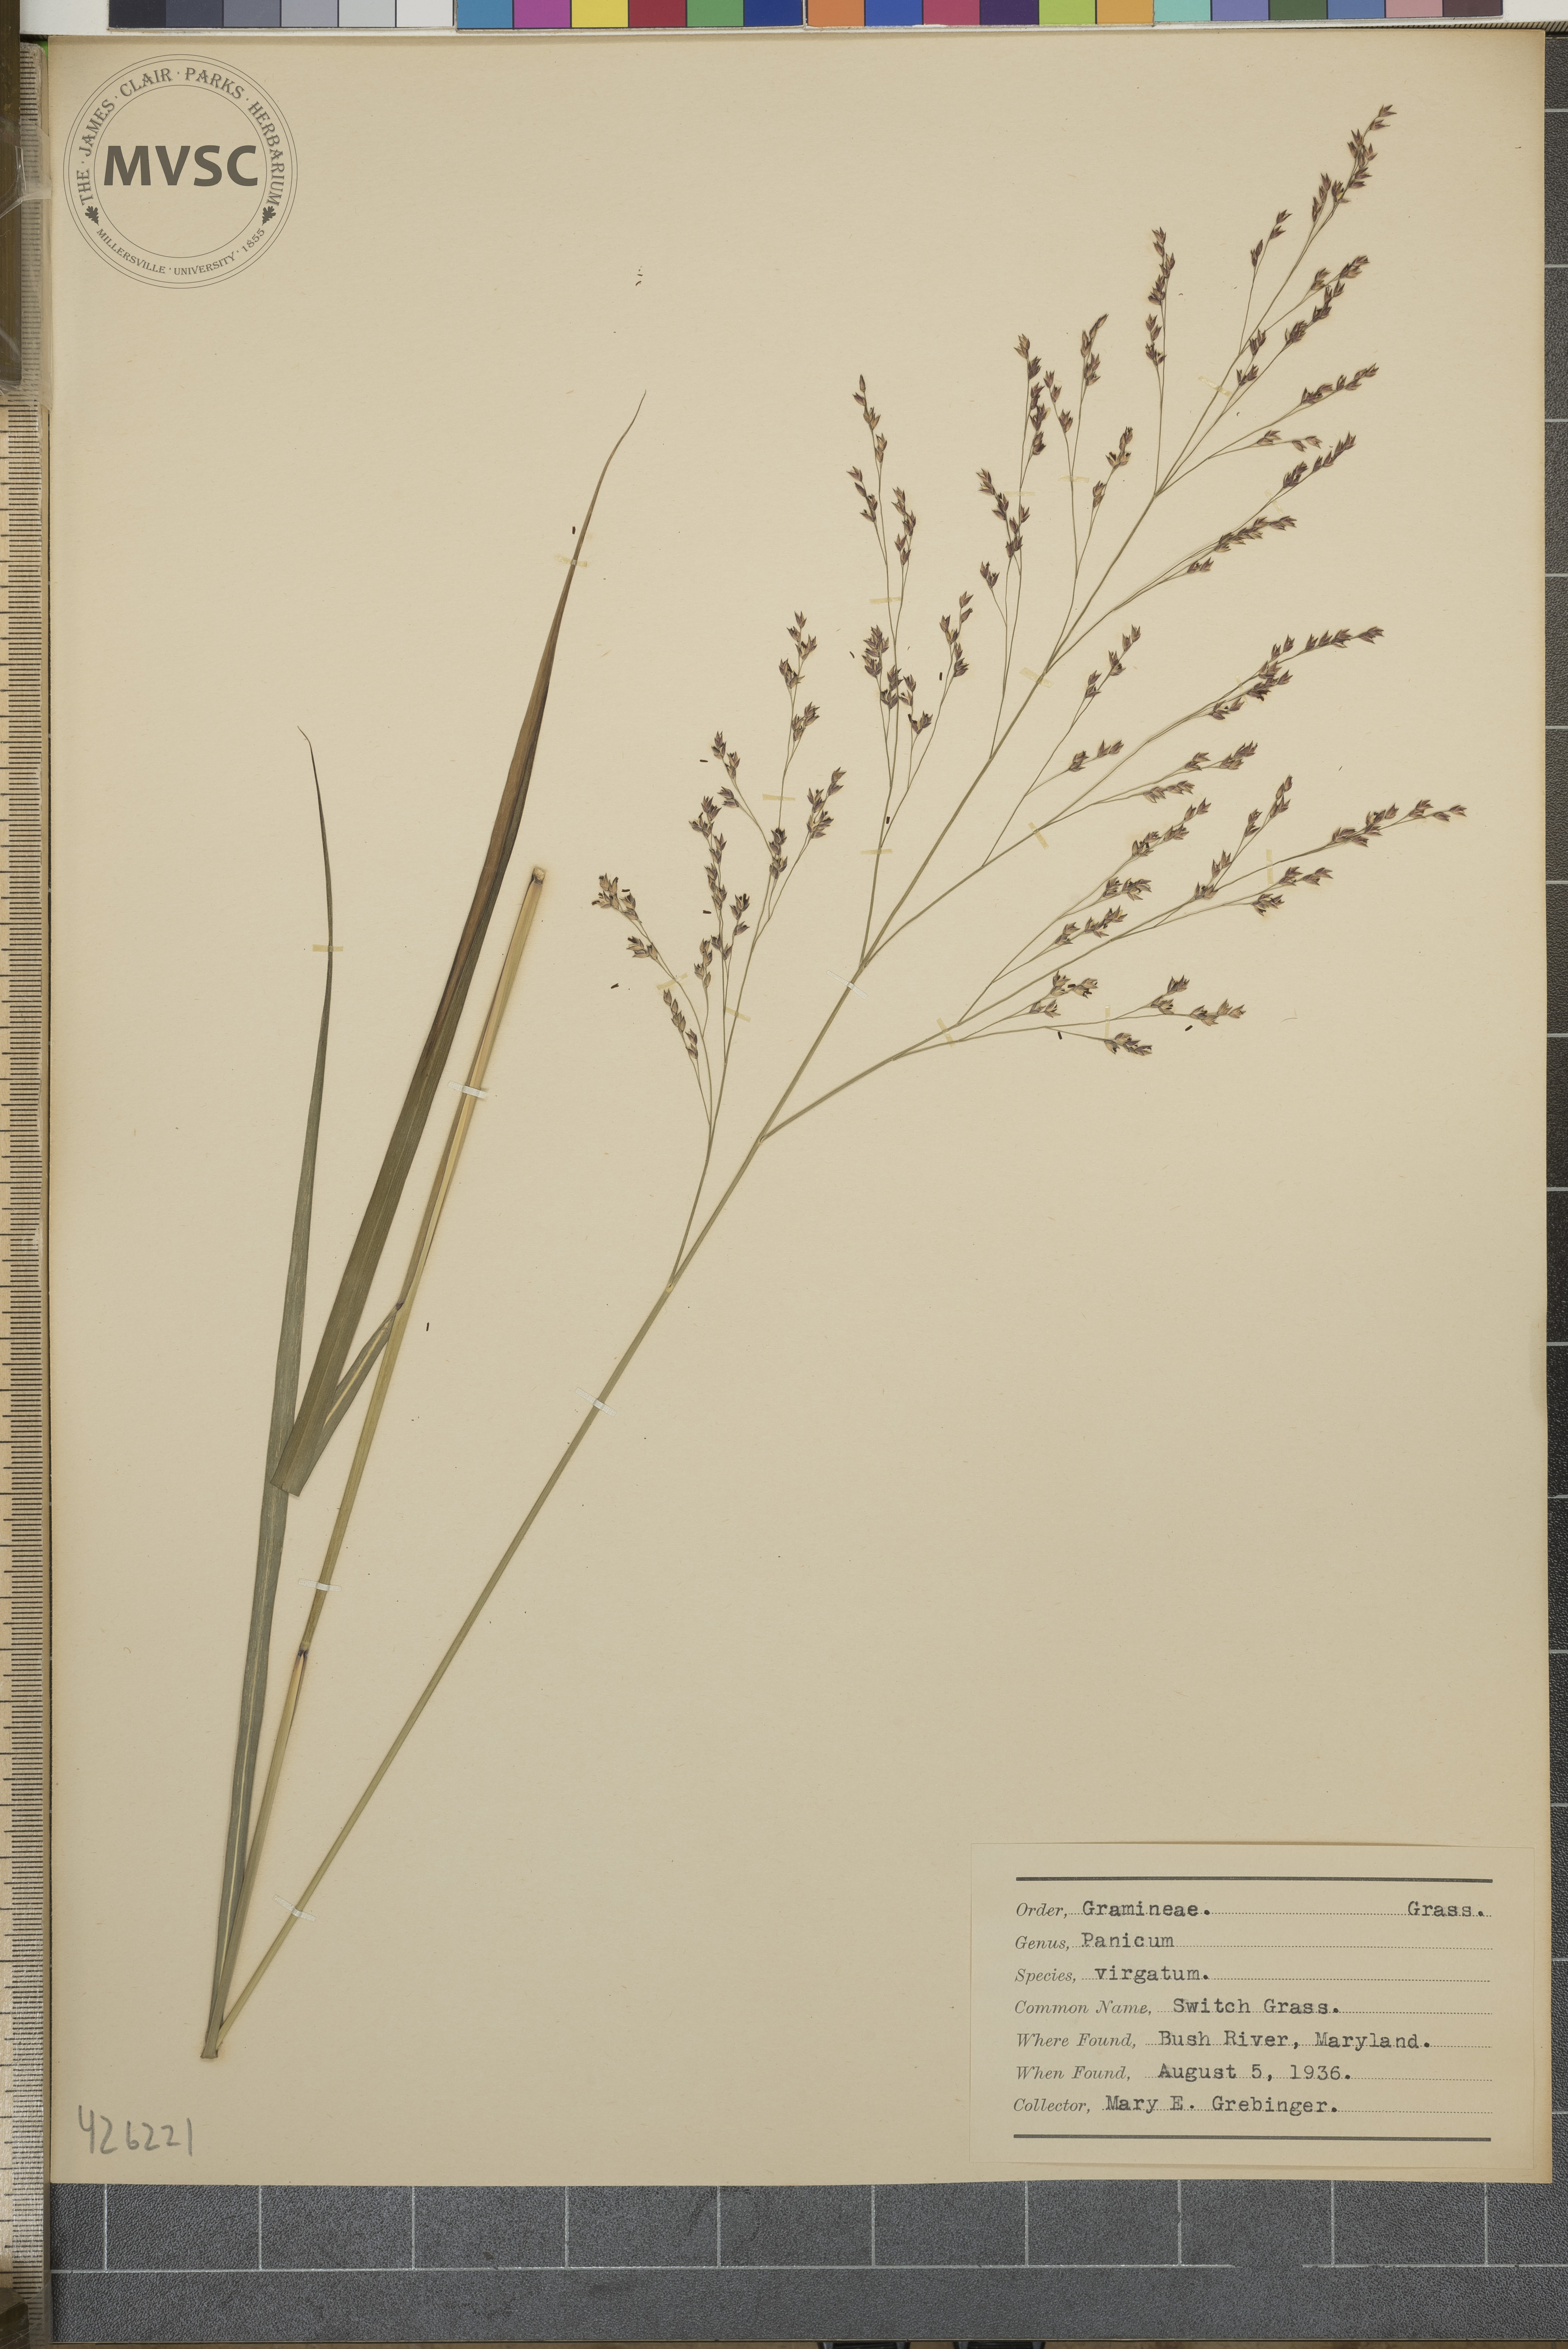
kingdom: Plantae
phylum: Tracheophyta
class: Liliopsida
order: Poales
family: Poaceae
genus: Panicum
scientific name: Panicum virgatum
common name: Switch grass
